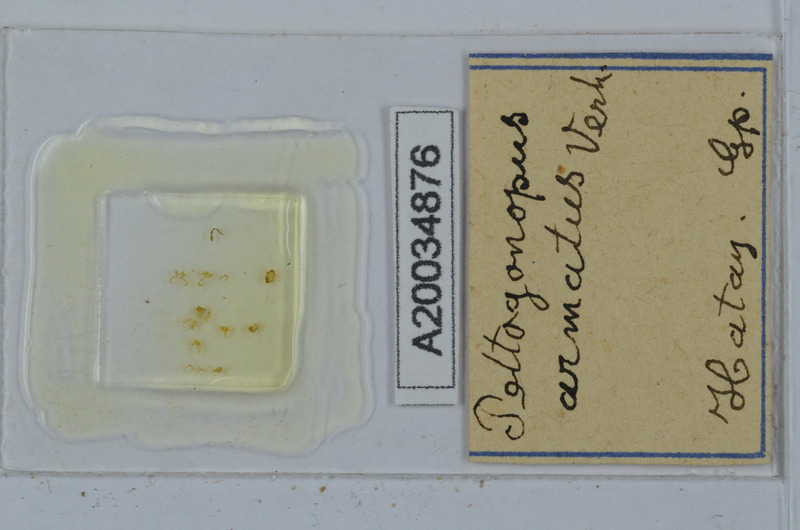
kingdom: Animalia
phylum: Arthropoda
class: Diplopoda
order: Polydesmida
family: Polydesmidae
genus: Peltogonopus
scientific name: Peltogonopus armatus
